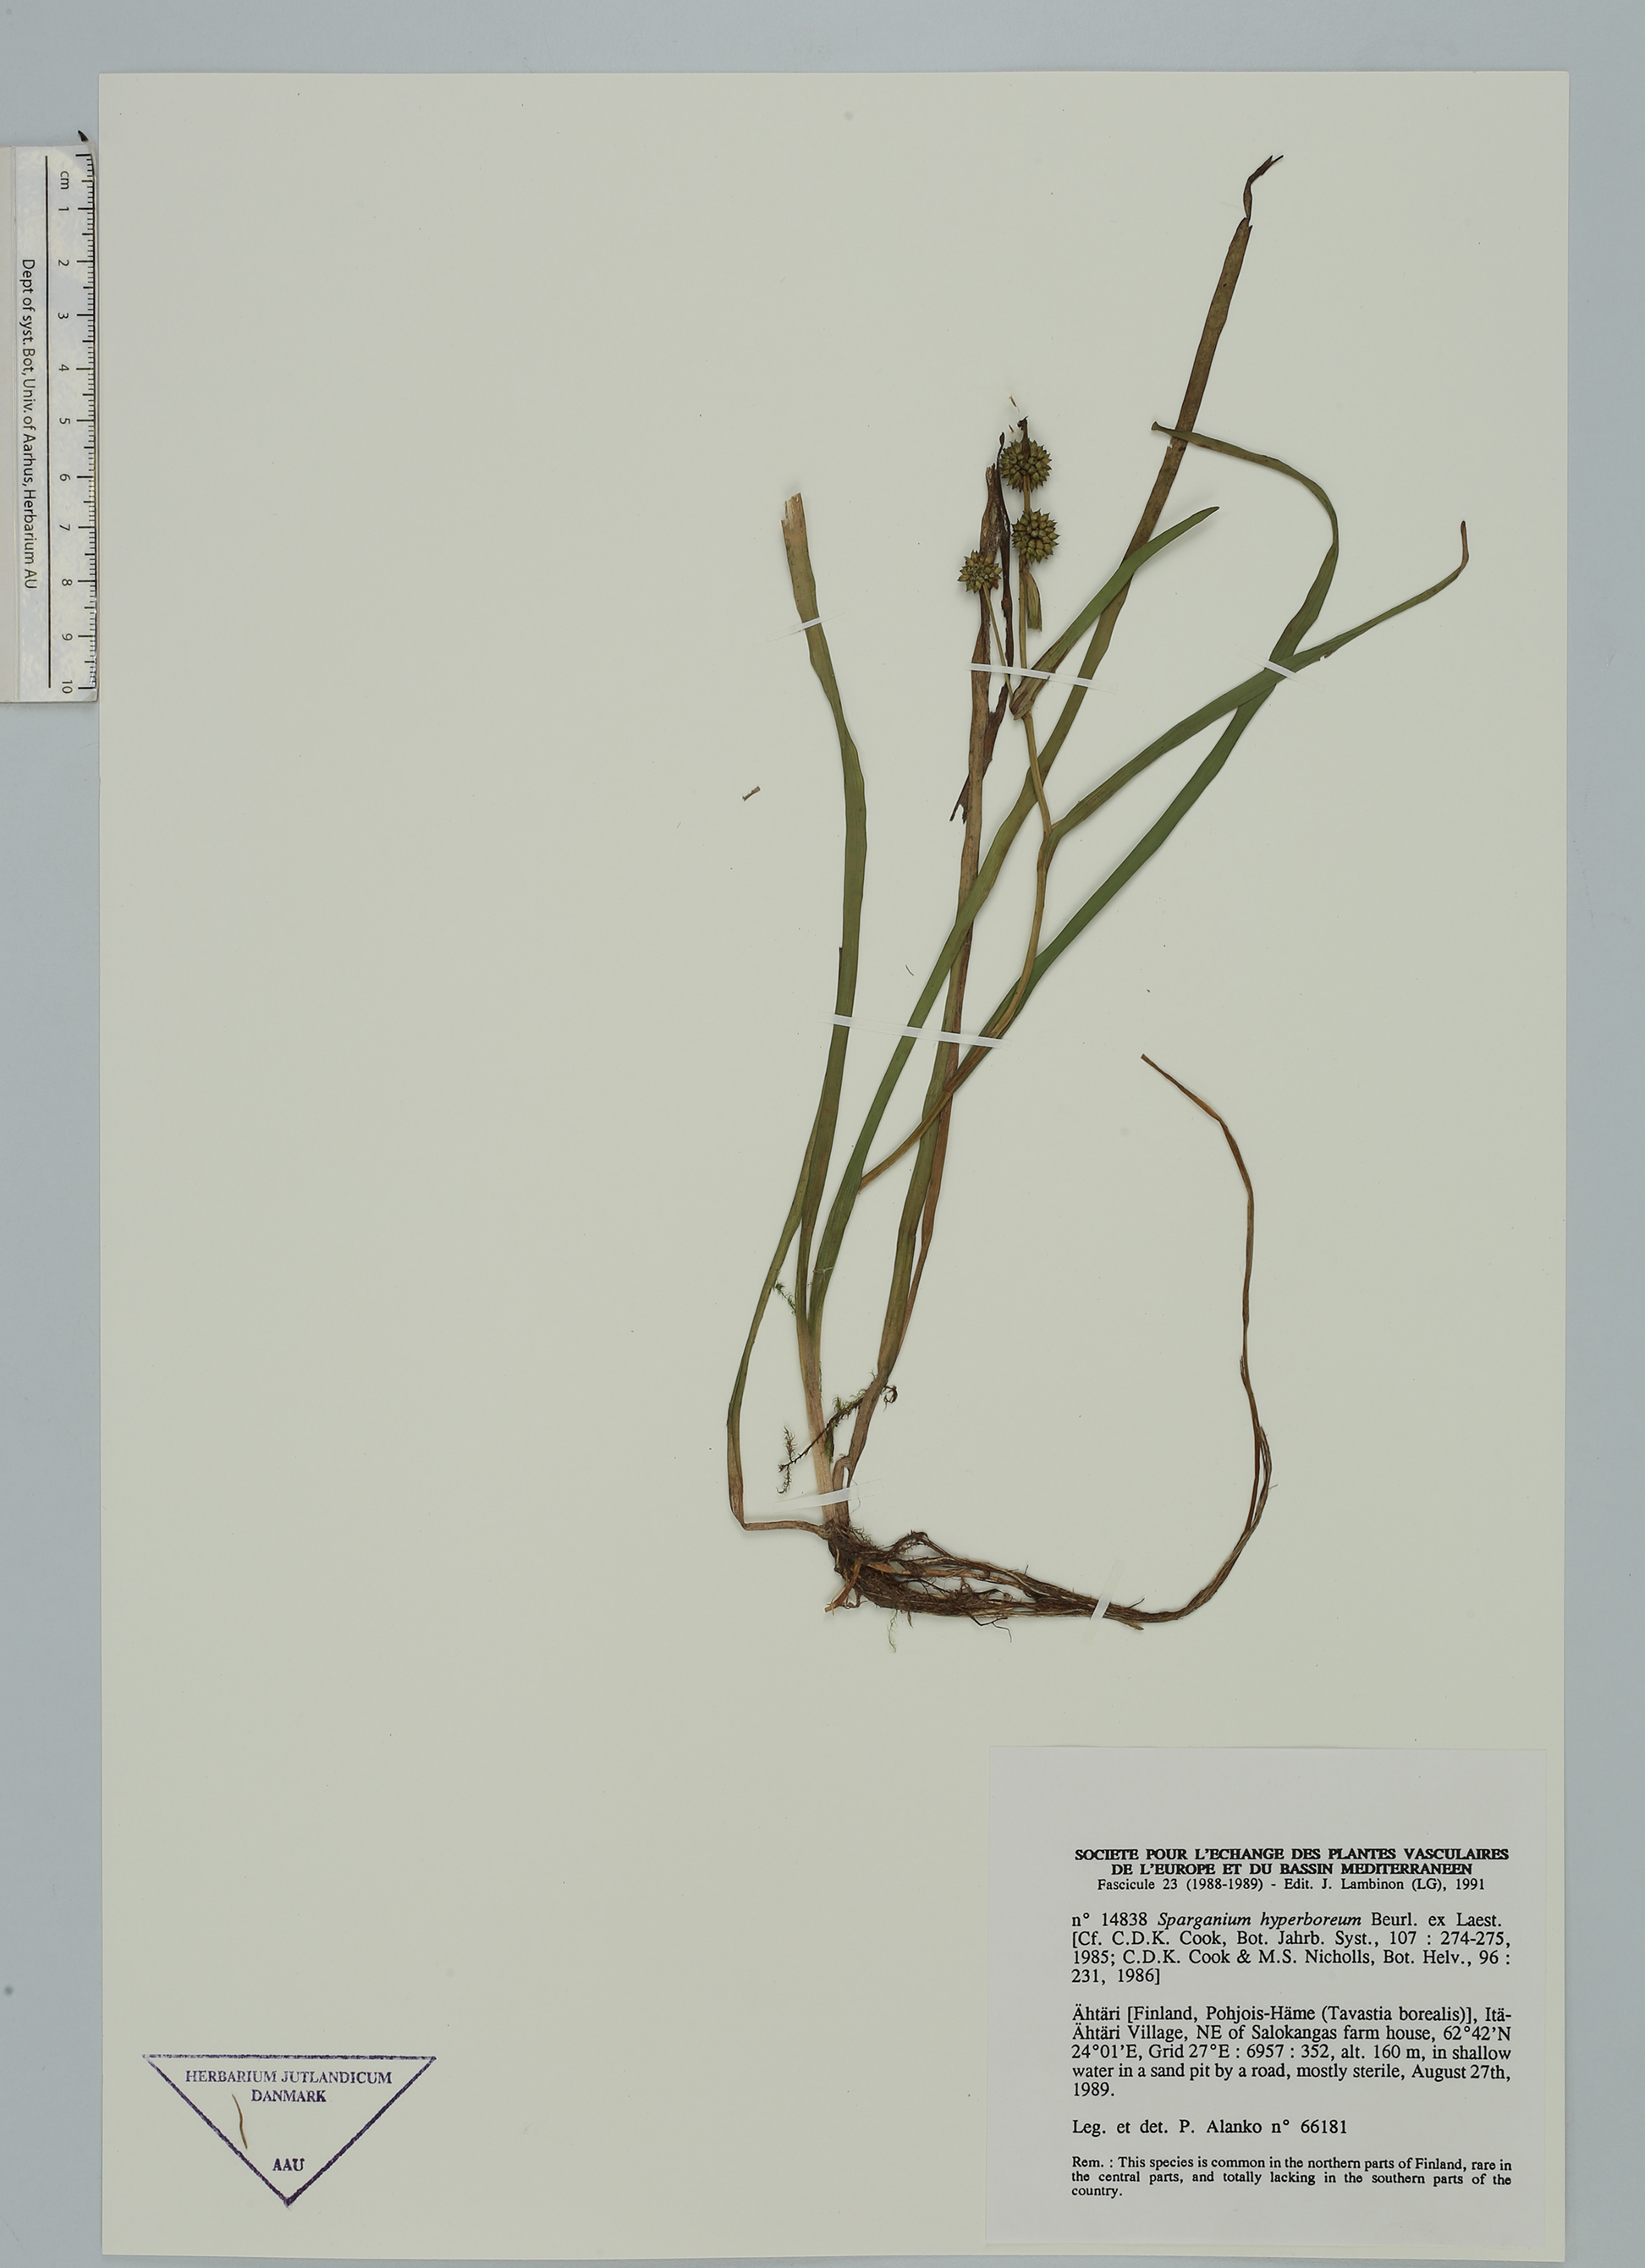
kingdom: Plantae
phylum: Tracheophyta
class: Liliopsida
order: Poales
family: Typhaceae
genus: Sparganium
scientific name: Sparganium hyperboreum
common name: Arctic burreed
